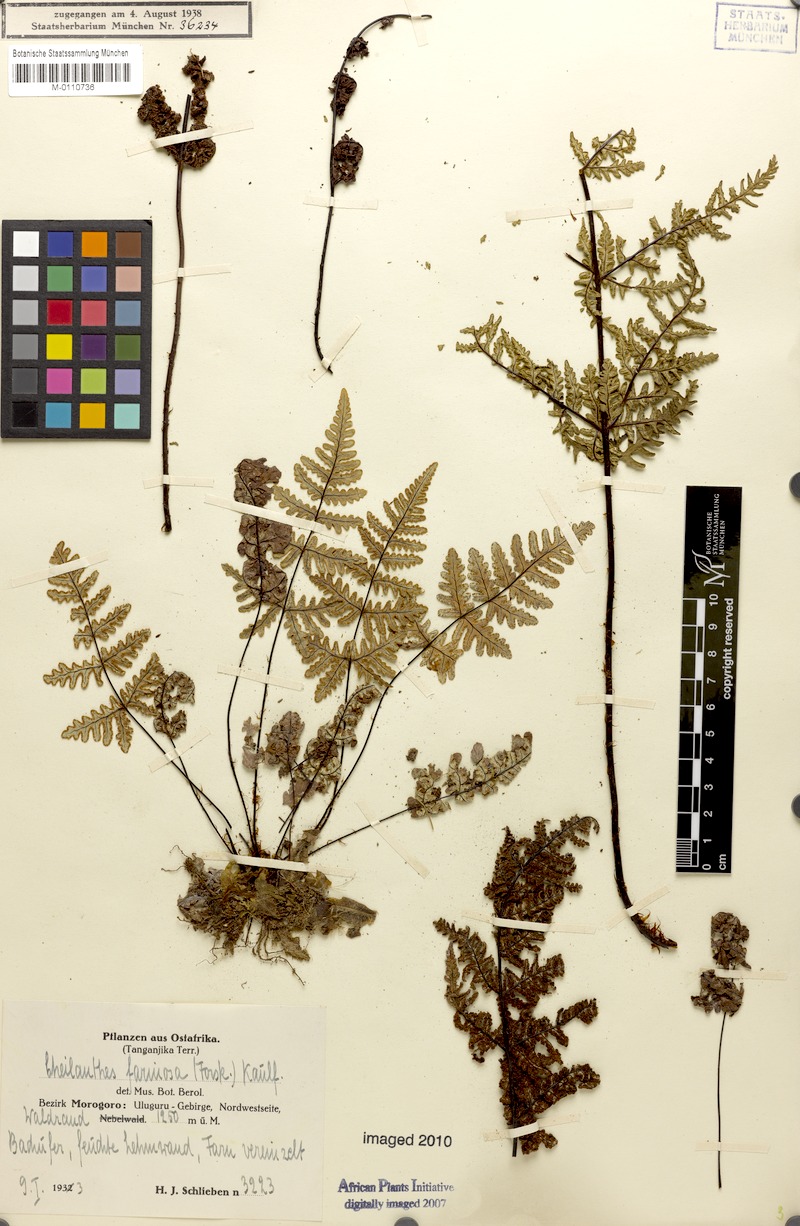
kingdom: Plantae
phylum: Tracheophyta
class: Polypodiopsida
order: Polypodiales
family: Pteridaceae
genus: Aleuritopteris
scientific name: Aleuritopteris farinosa
